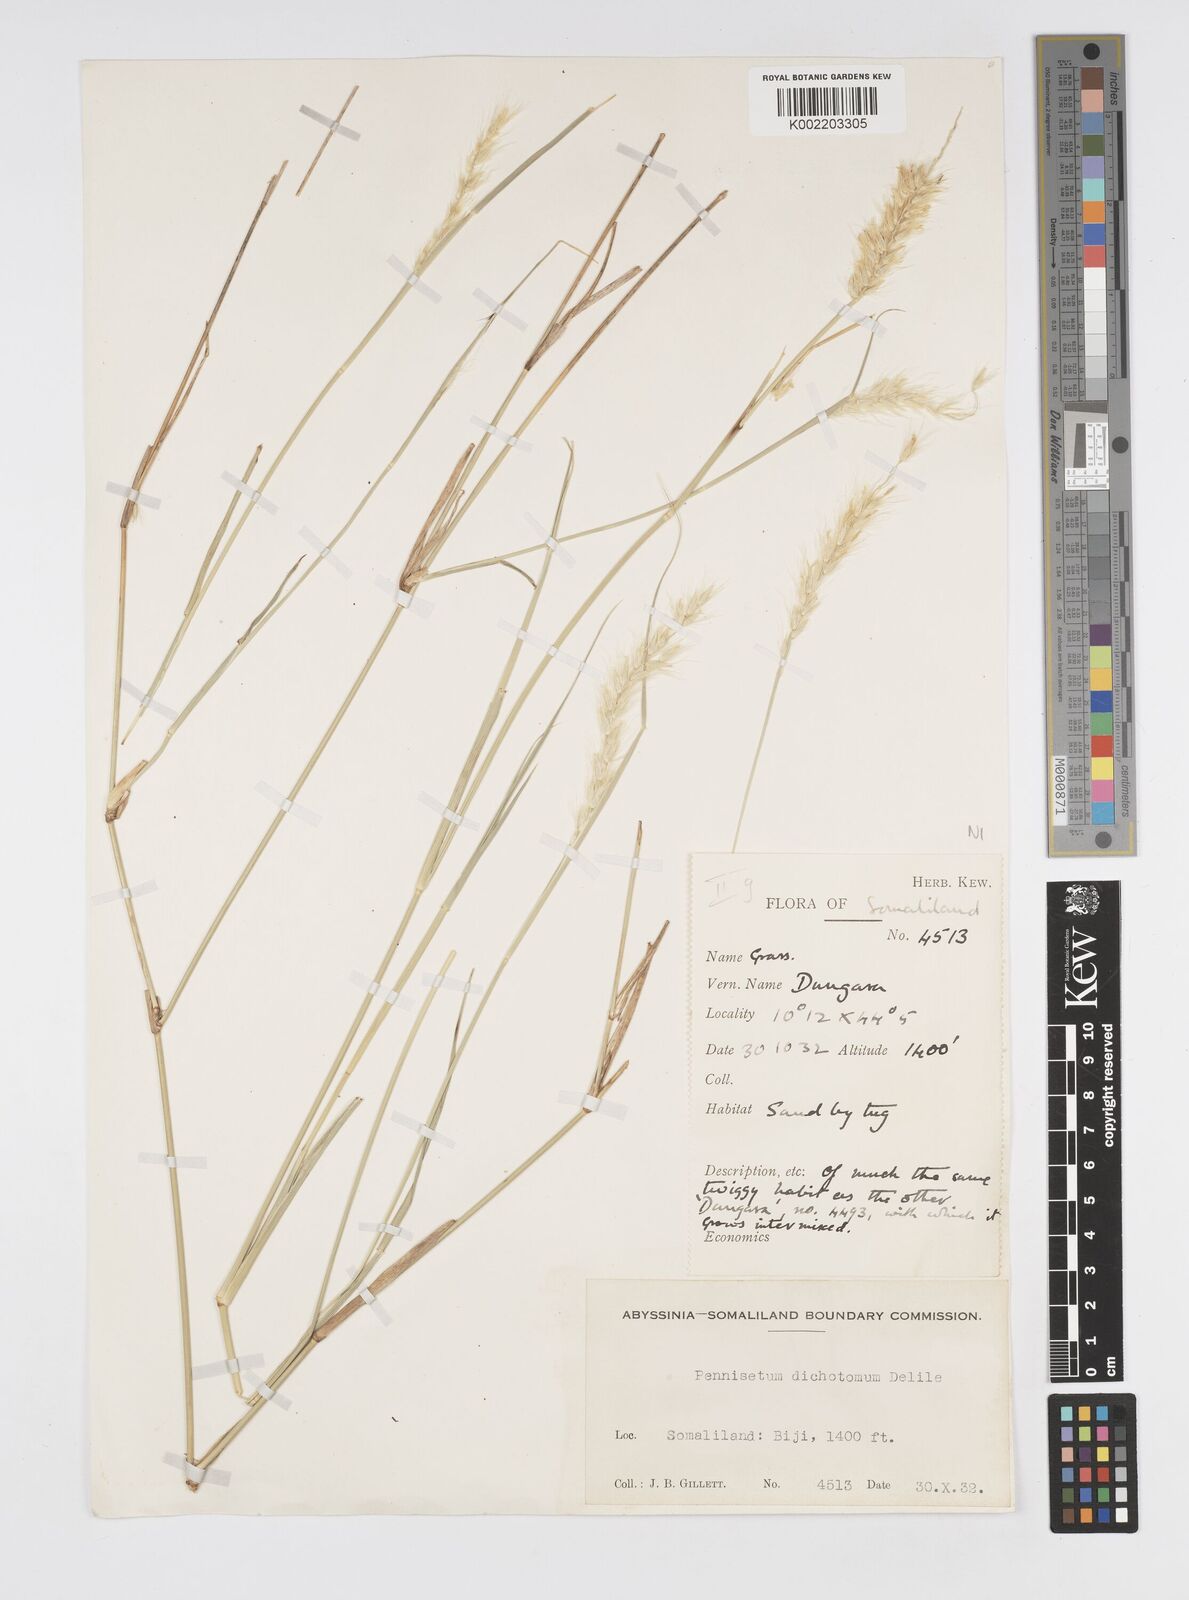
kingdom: Plantae
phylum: Tracheophyta
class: Liliopsida
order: Poales
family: Poaceae
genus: Cenchrus
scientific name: Cenchrus divisus
